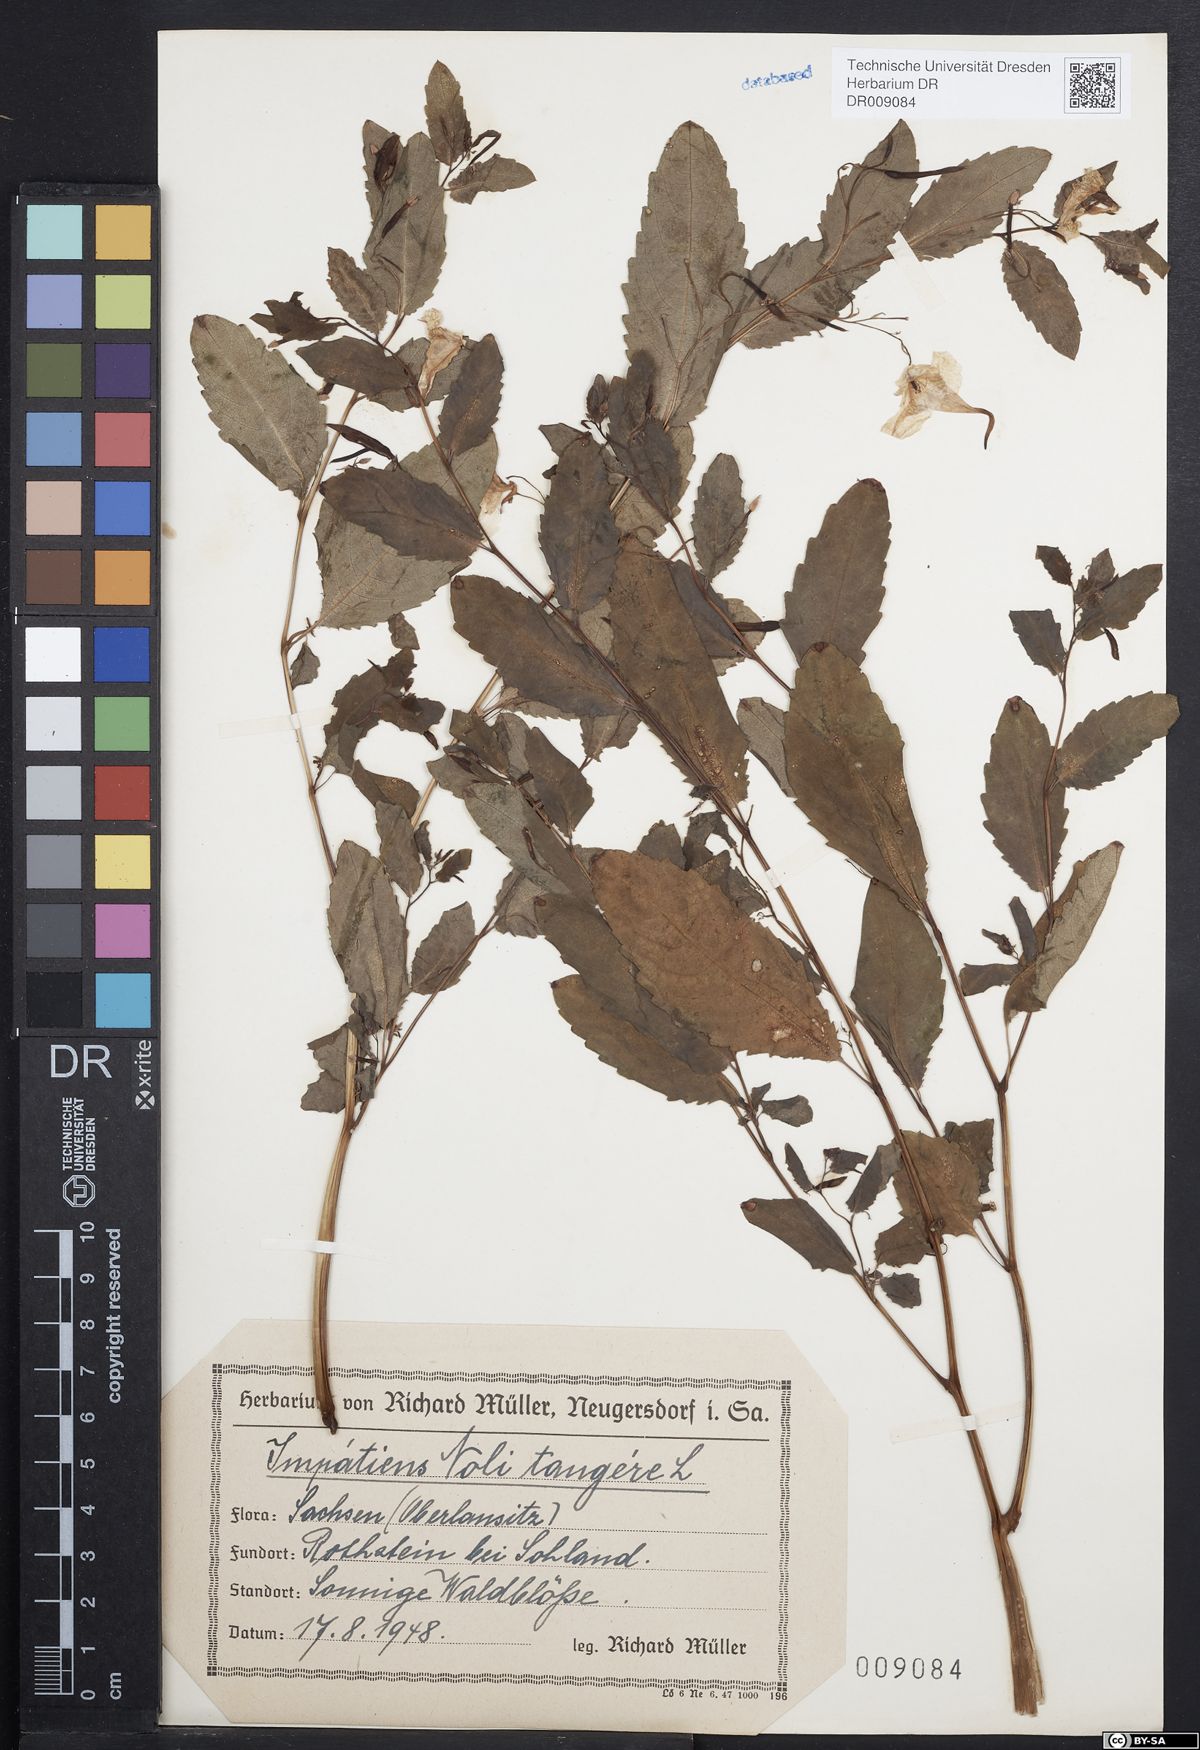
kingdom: Plantae
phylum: Tracheophyta
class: Magnoliopsida
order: Ericales
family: Balsaminaceae
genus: Impatiens
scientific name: Impatiens noli-tangere
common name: Touch-me-not balsam
